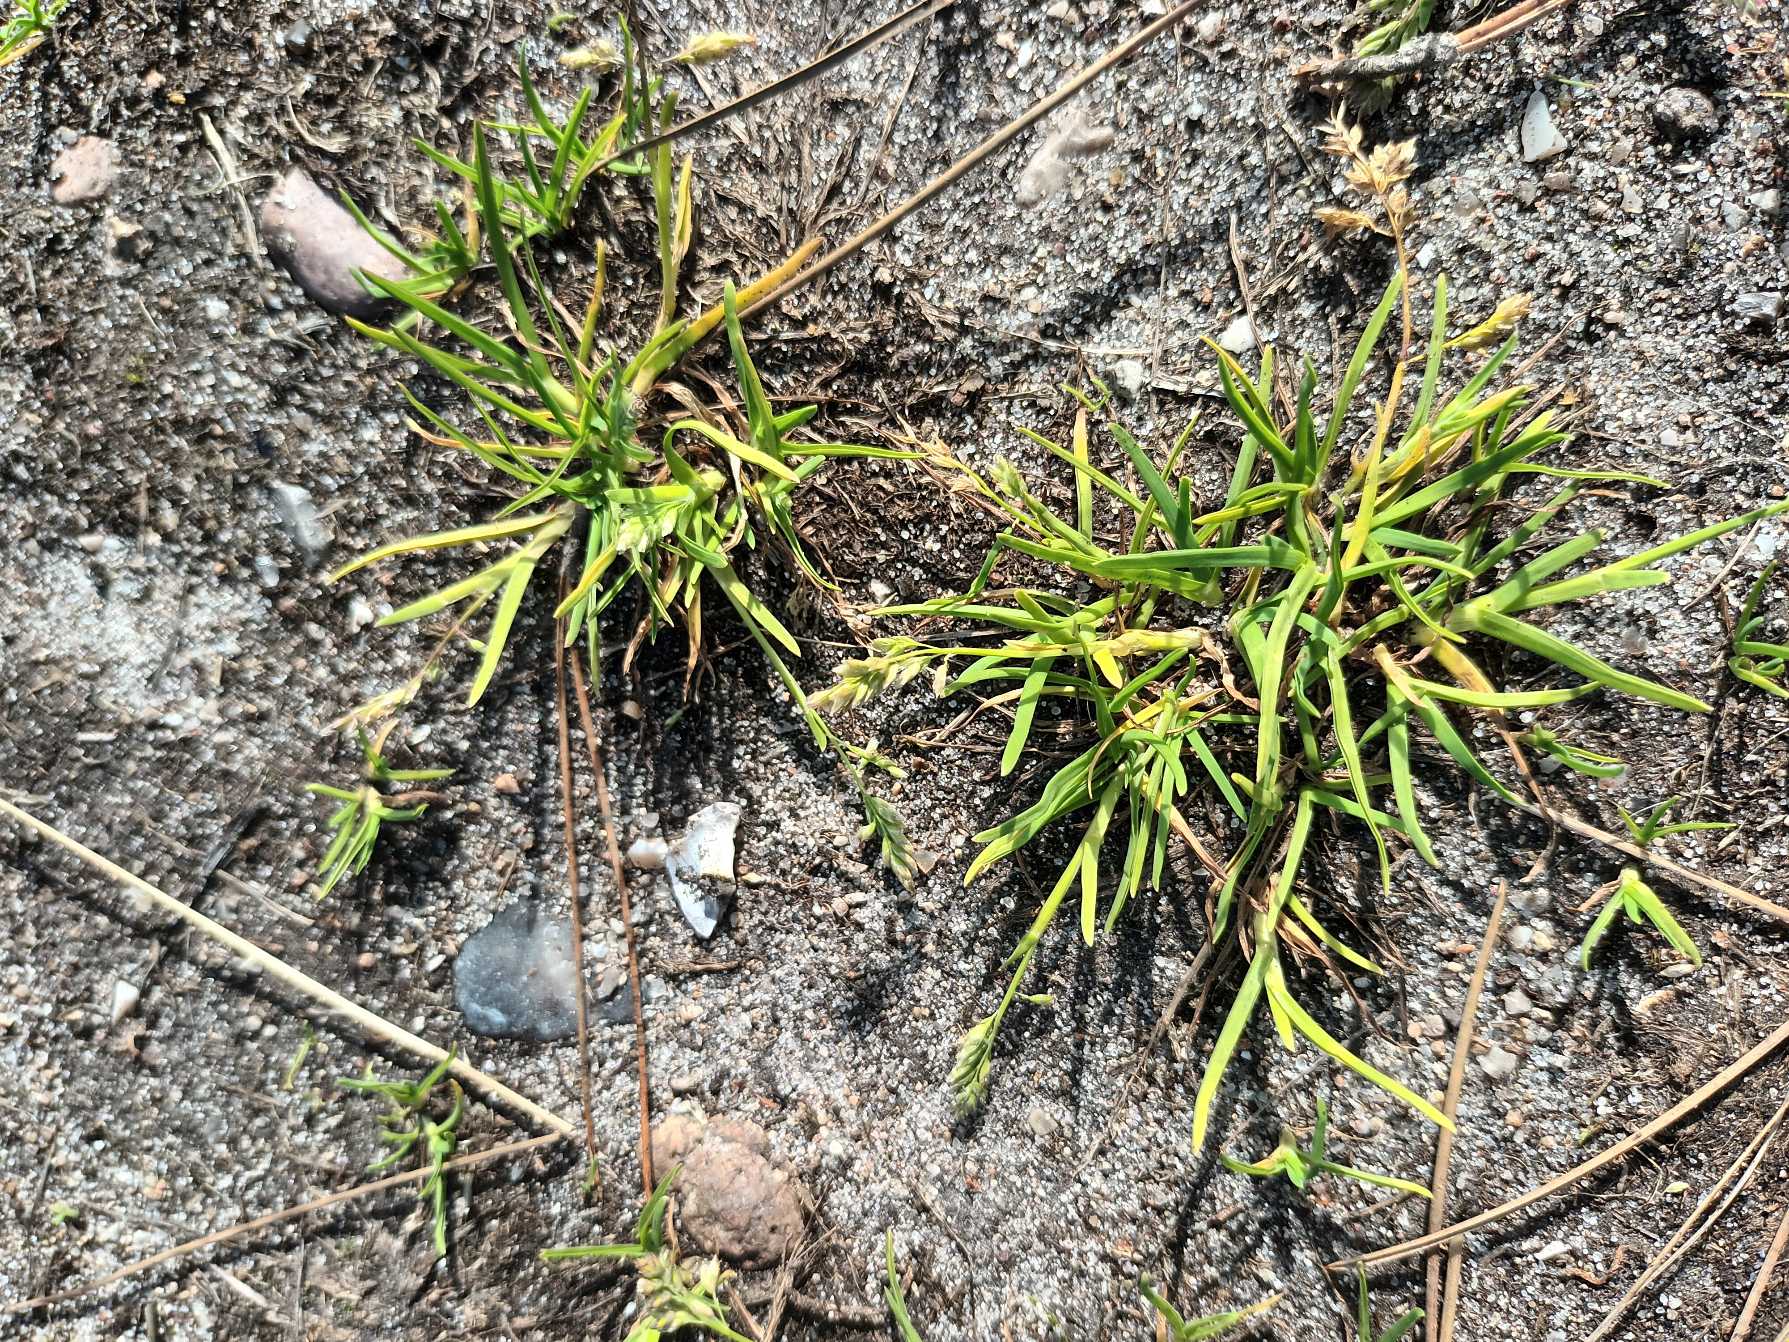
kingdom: Plantae
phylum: Tracheophyta
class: Liliopsida
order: Poales
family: Poaceae
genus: Poa
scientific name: Poa annua
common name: Enårig rapgræs
